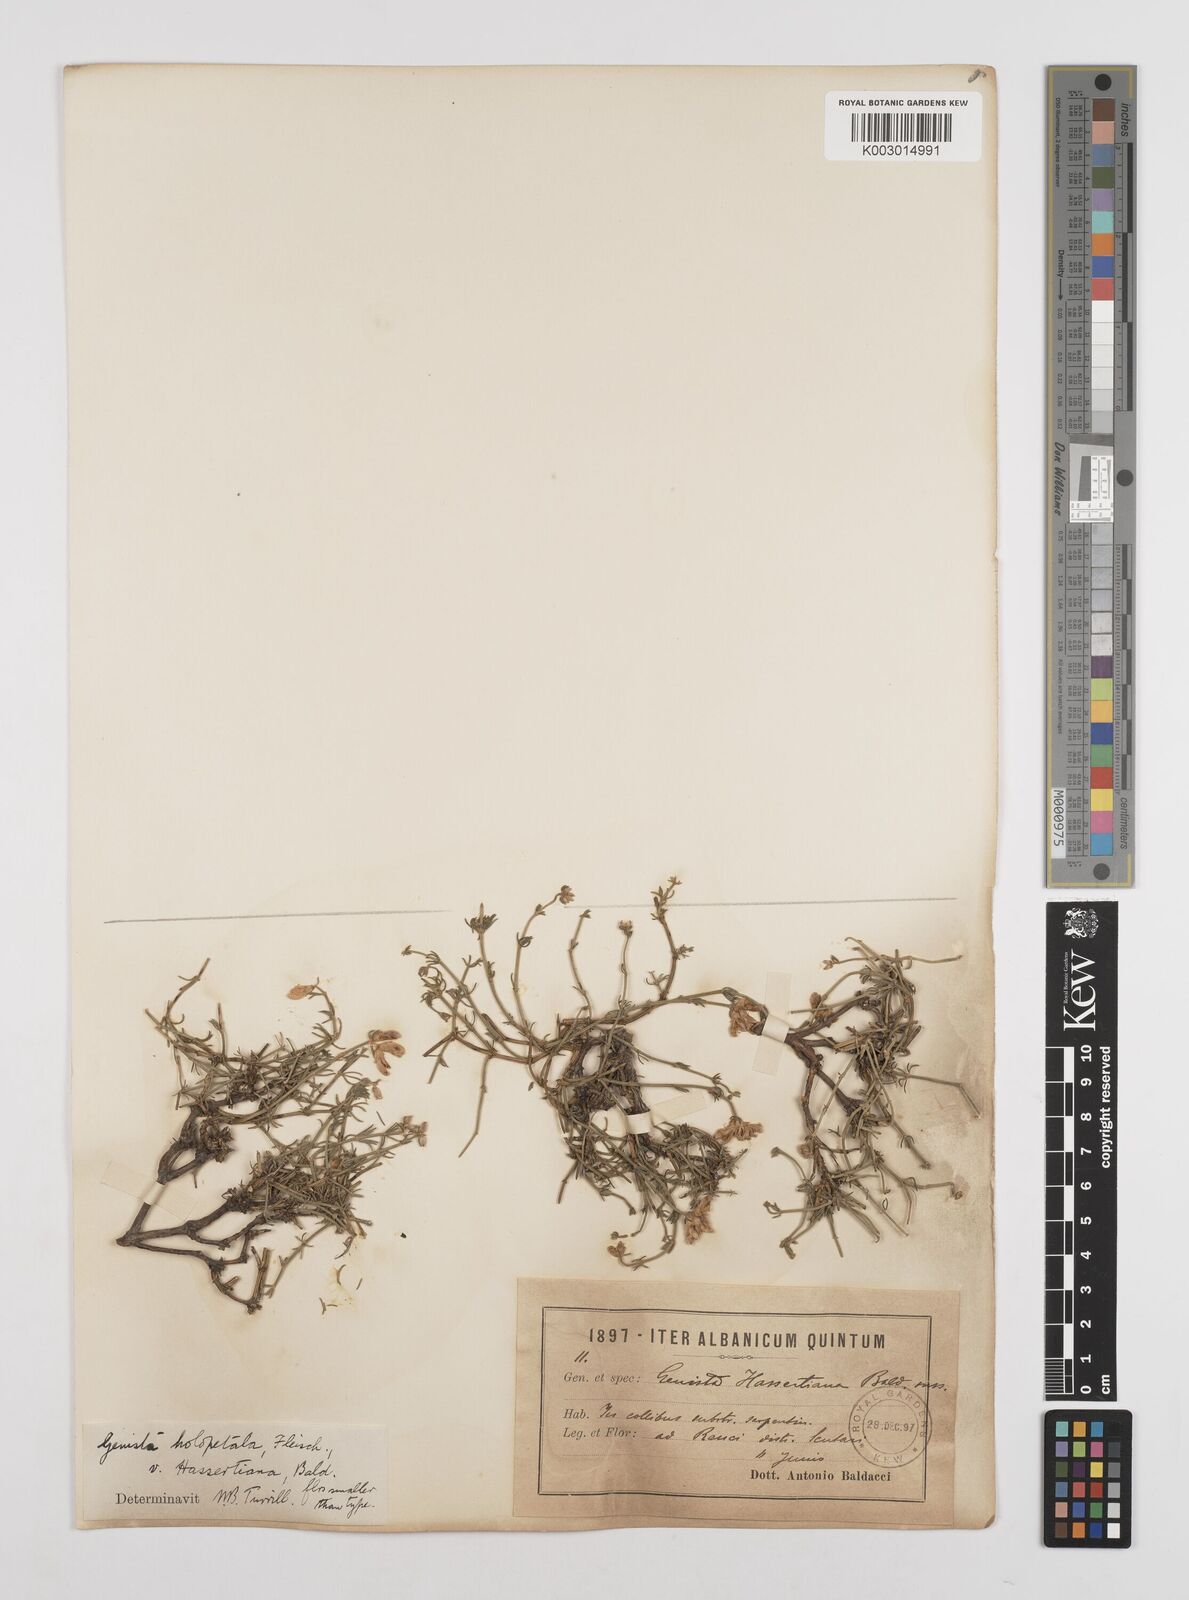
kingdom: Plantae
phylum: Tracheophyta
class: Magnoliopsida
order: Fabales
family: Fabaceae
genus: Genista
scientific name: Genista hassertiana
